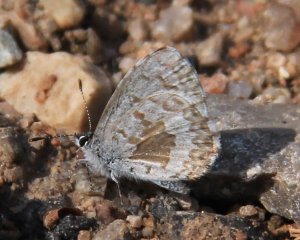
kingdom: Animalia
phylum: Arthropoda
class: Insecta
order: Lepidoptera
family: Lycaenidae
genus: Celastrina
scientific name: Celastrina
